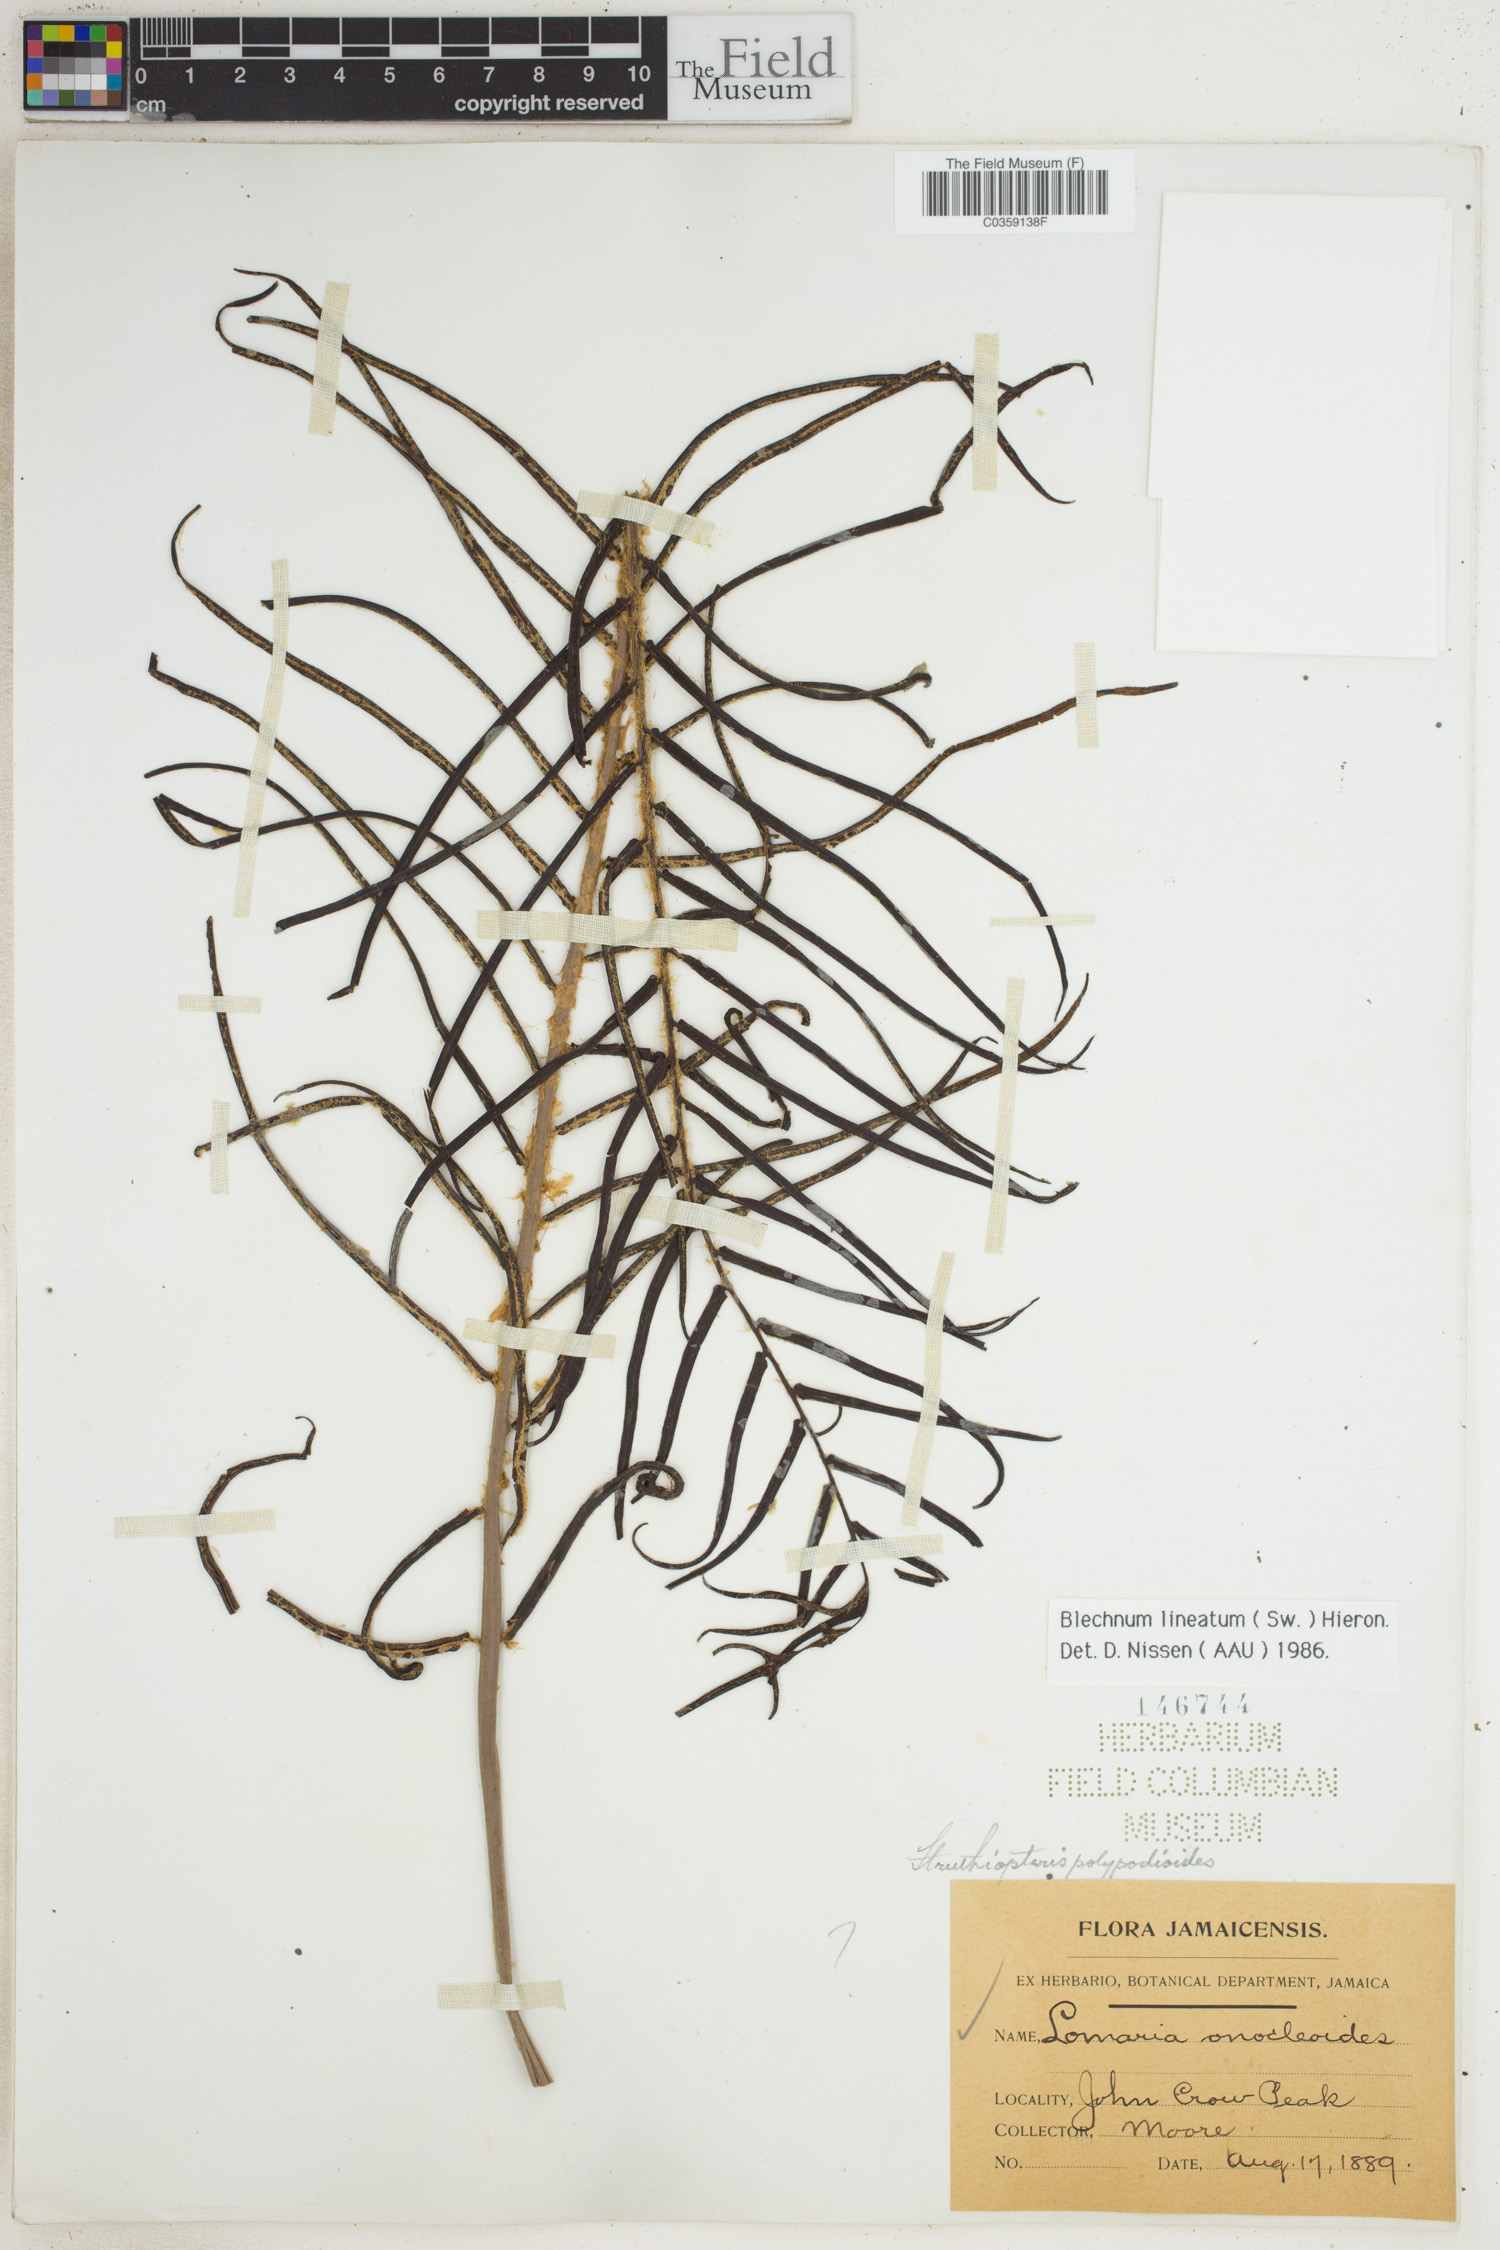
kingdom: Plantae
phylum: Tracheophyta
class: Polypodiopsida
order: Polypodiales
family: Blechnaceae
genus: Parablechnum
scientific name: Parablechnum lineatum
